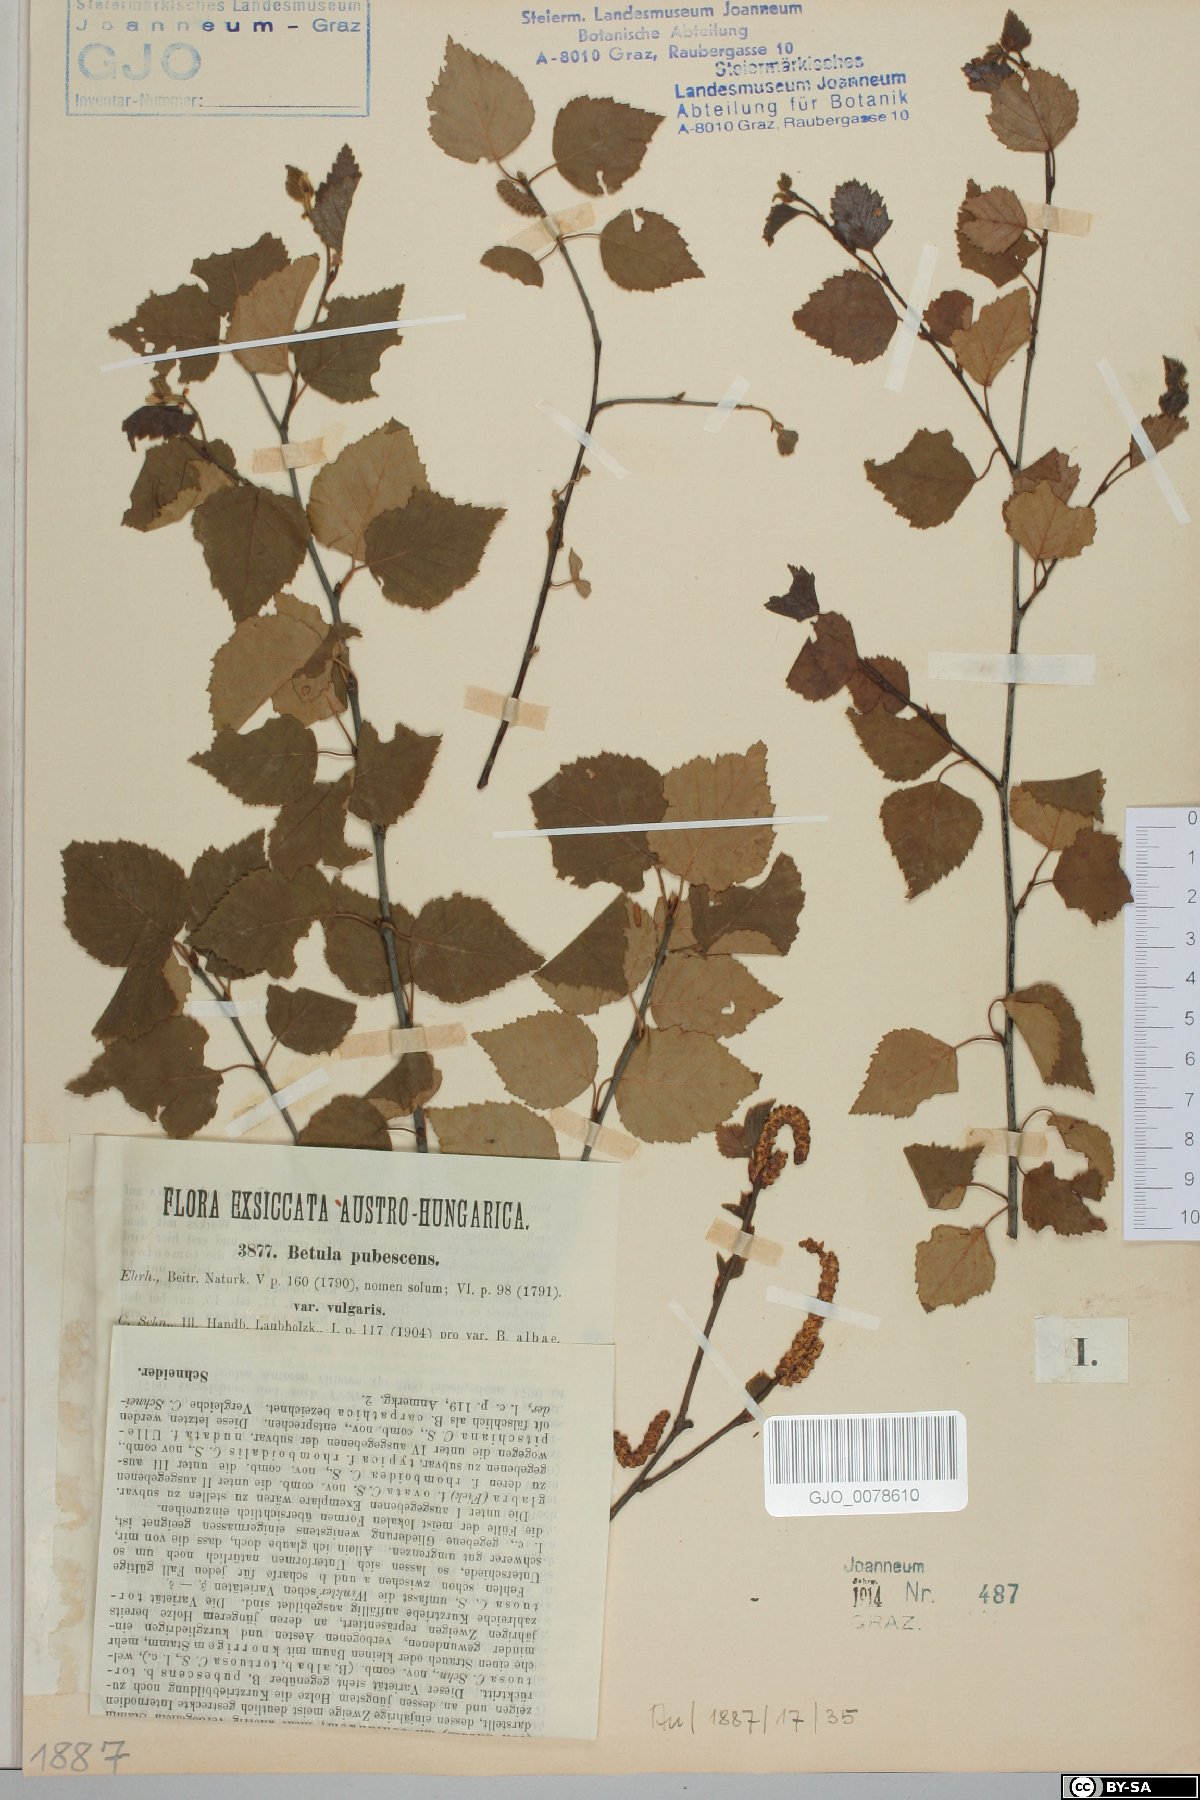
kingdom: Plantae
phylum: Tracheophyta
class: Magnoliopsida
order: Fagales
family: Betulaceae
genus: Betula
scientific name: Betula pubescens
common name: Downy birch
